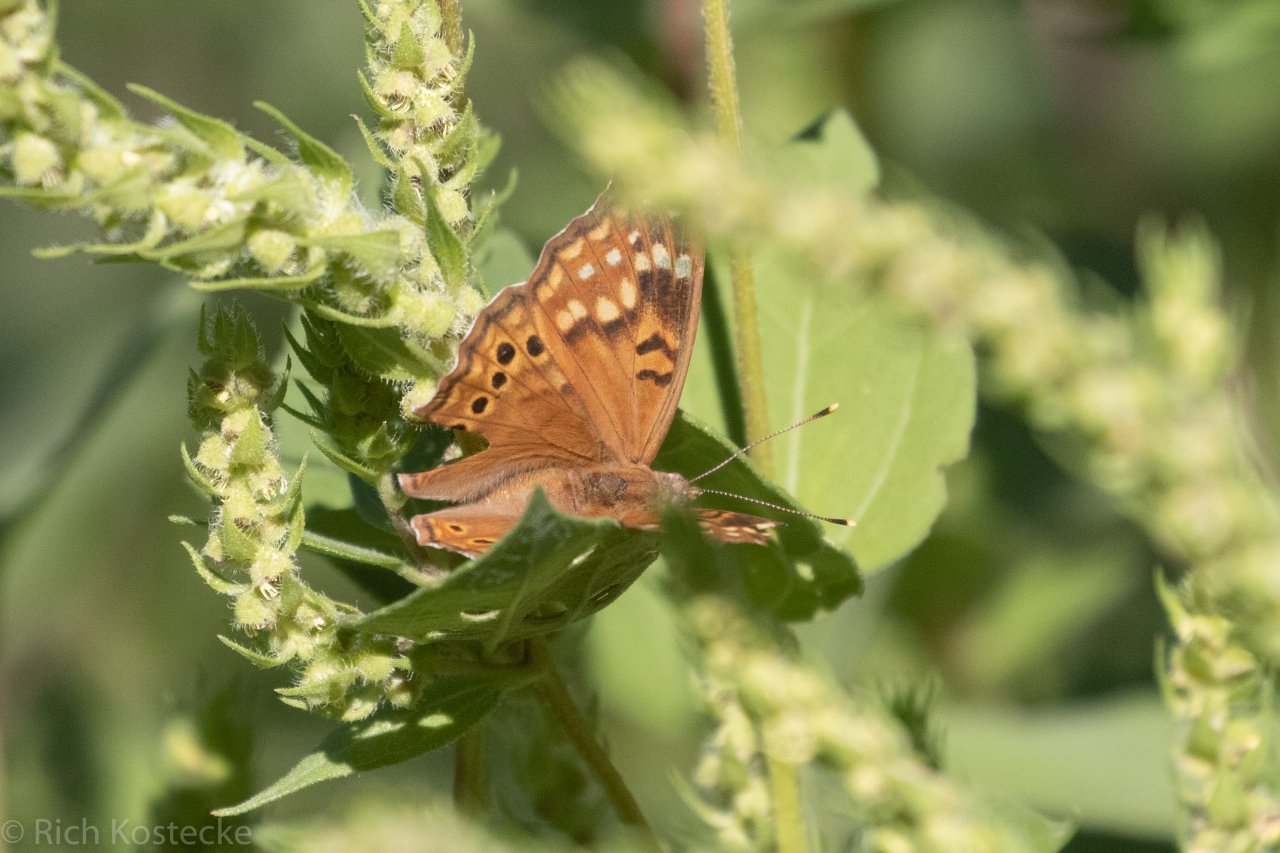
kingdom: Animalia
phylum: Arthropoda
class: Insecta
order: Lepidoptera
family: Nymphalidae
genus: Asterocampa
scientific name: Asterocampa clyton
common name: Tawny Emperor
